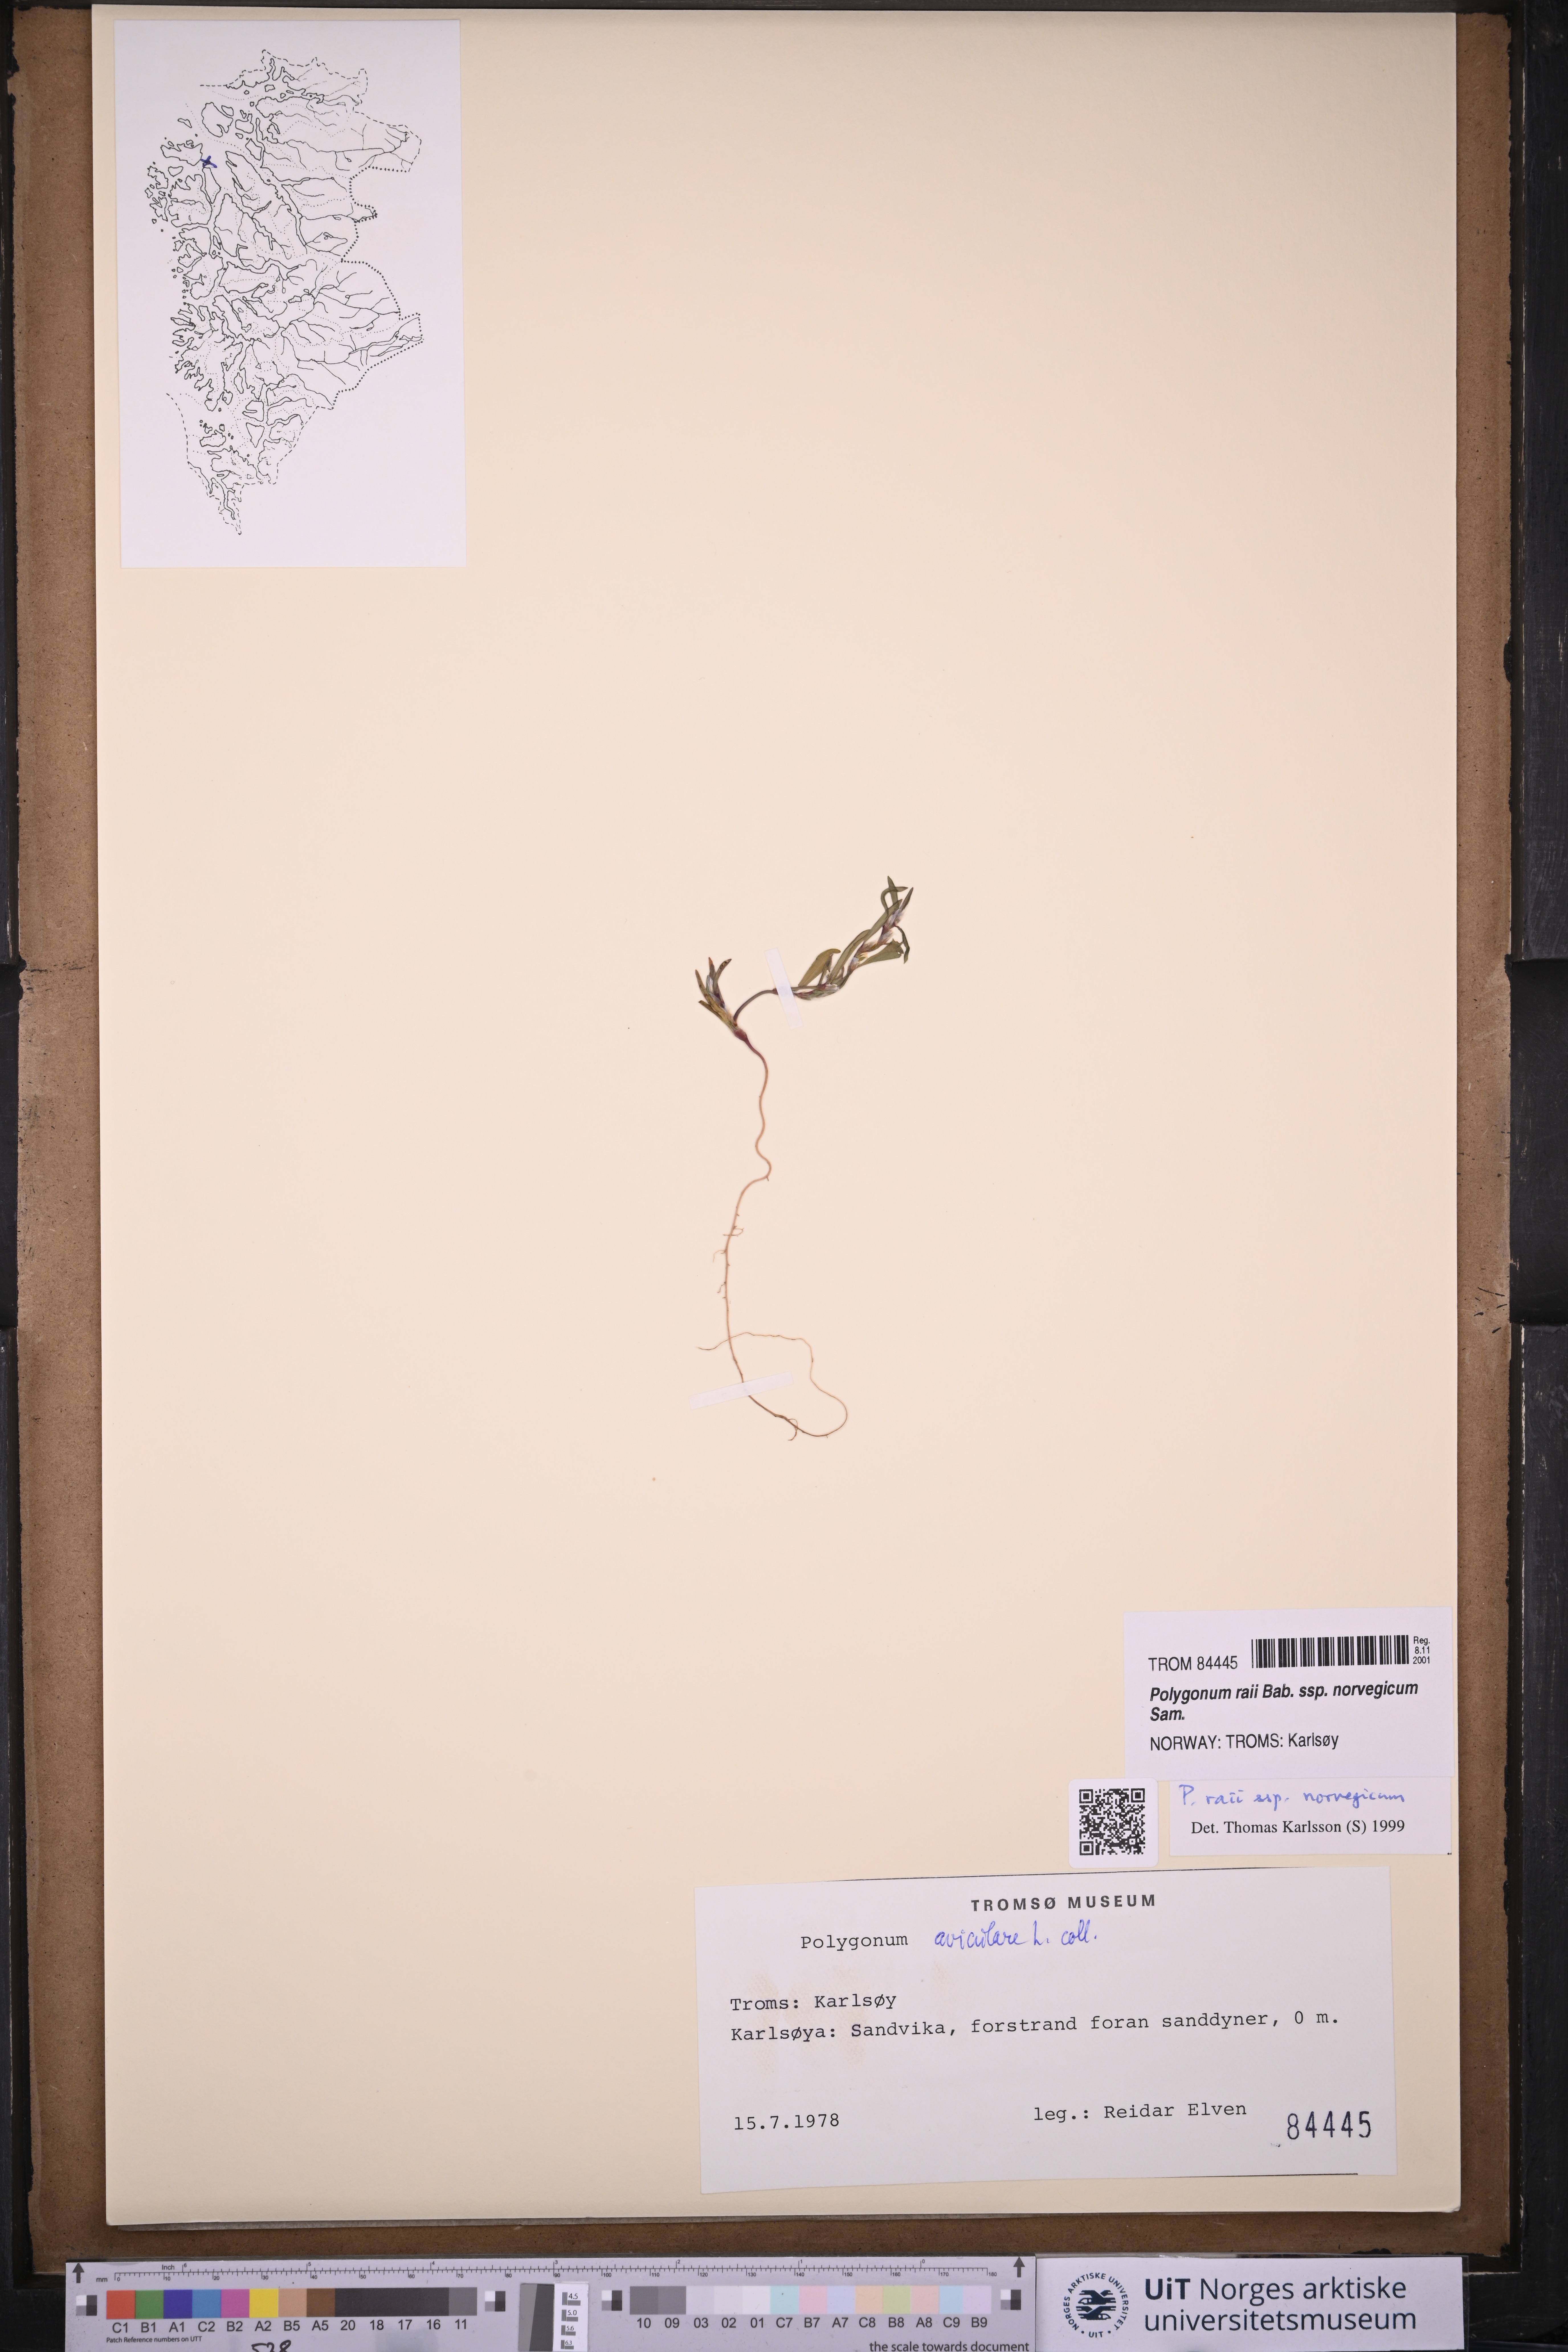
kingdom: Plantae
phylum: Tracheophyta
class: Magnoliopsida
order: Caryophyllales
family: Polygonaceae
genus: Polygonum
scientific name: Polygonum norvegicum
